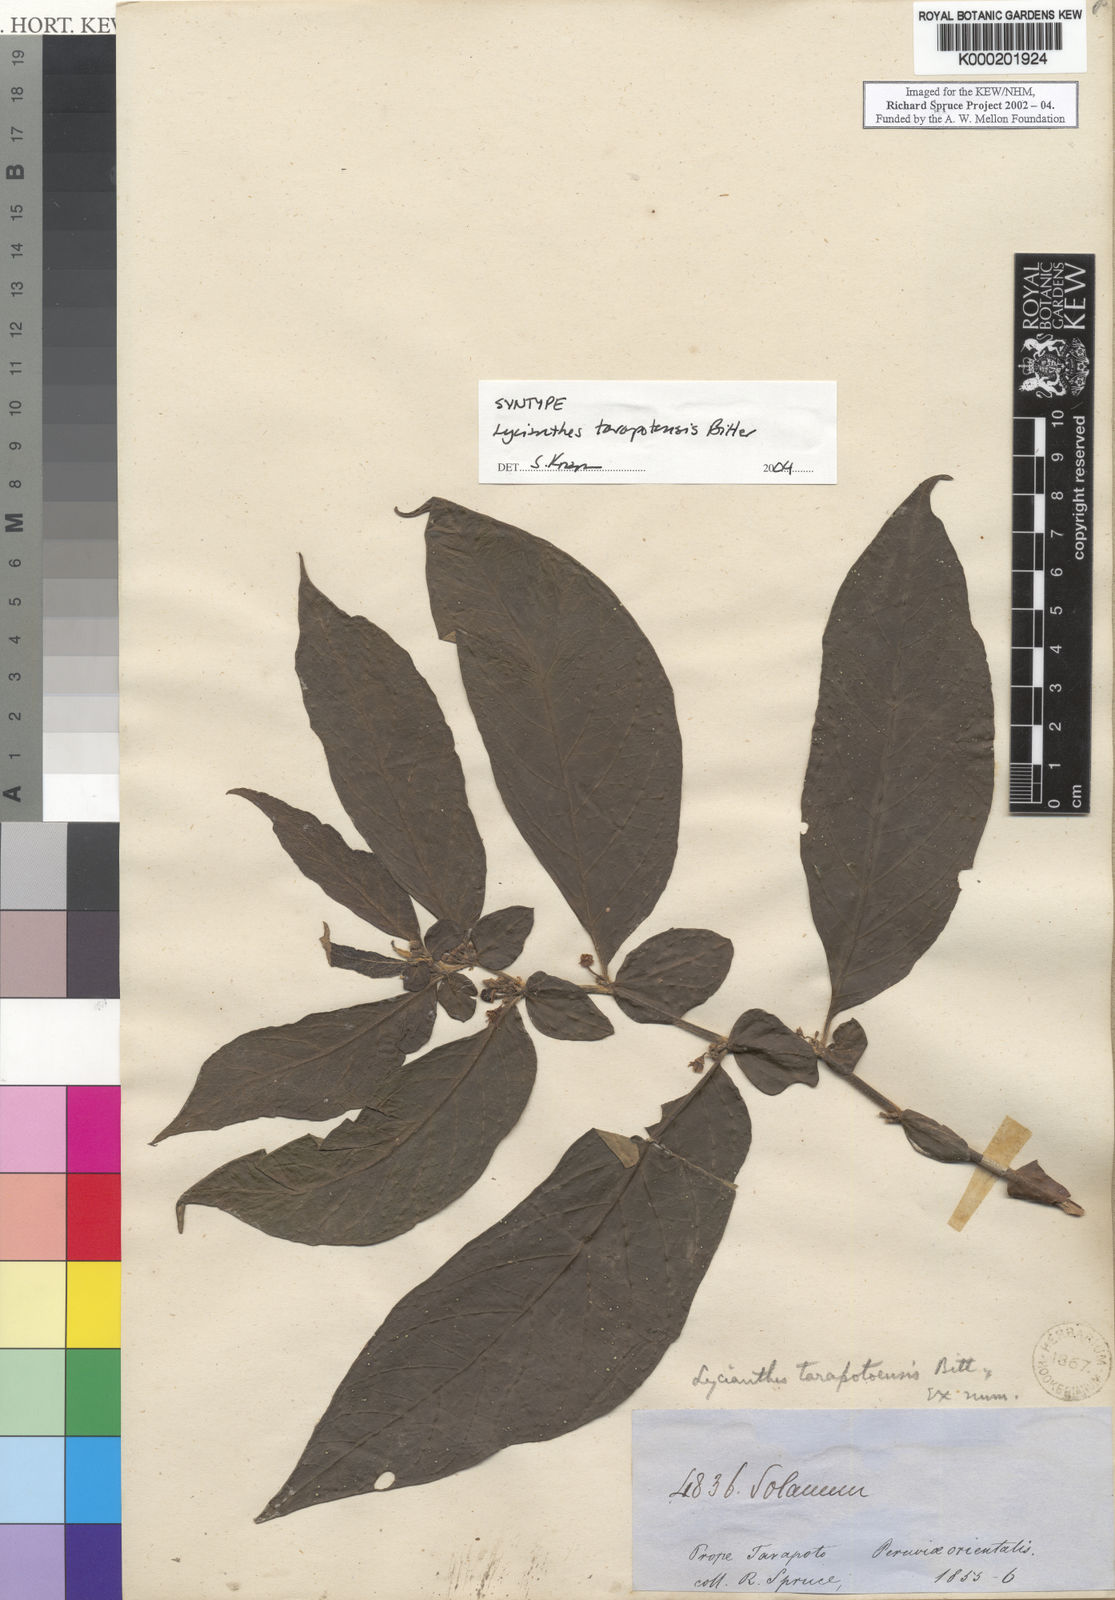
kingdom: Plantae
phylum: Tracheophyta
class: Magnoliopsida
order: Solanales
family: Solanaceae
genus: Lycianthes
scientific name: Lycianthes tarapotensis
